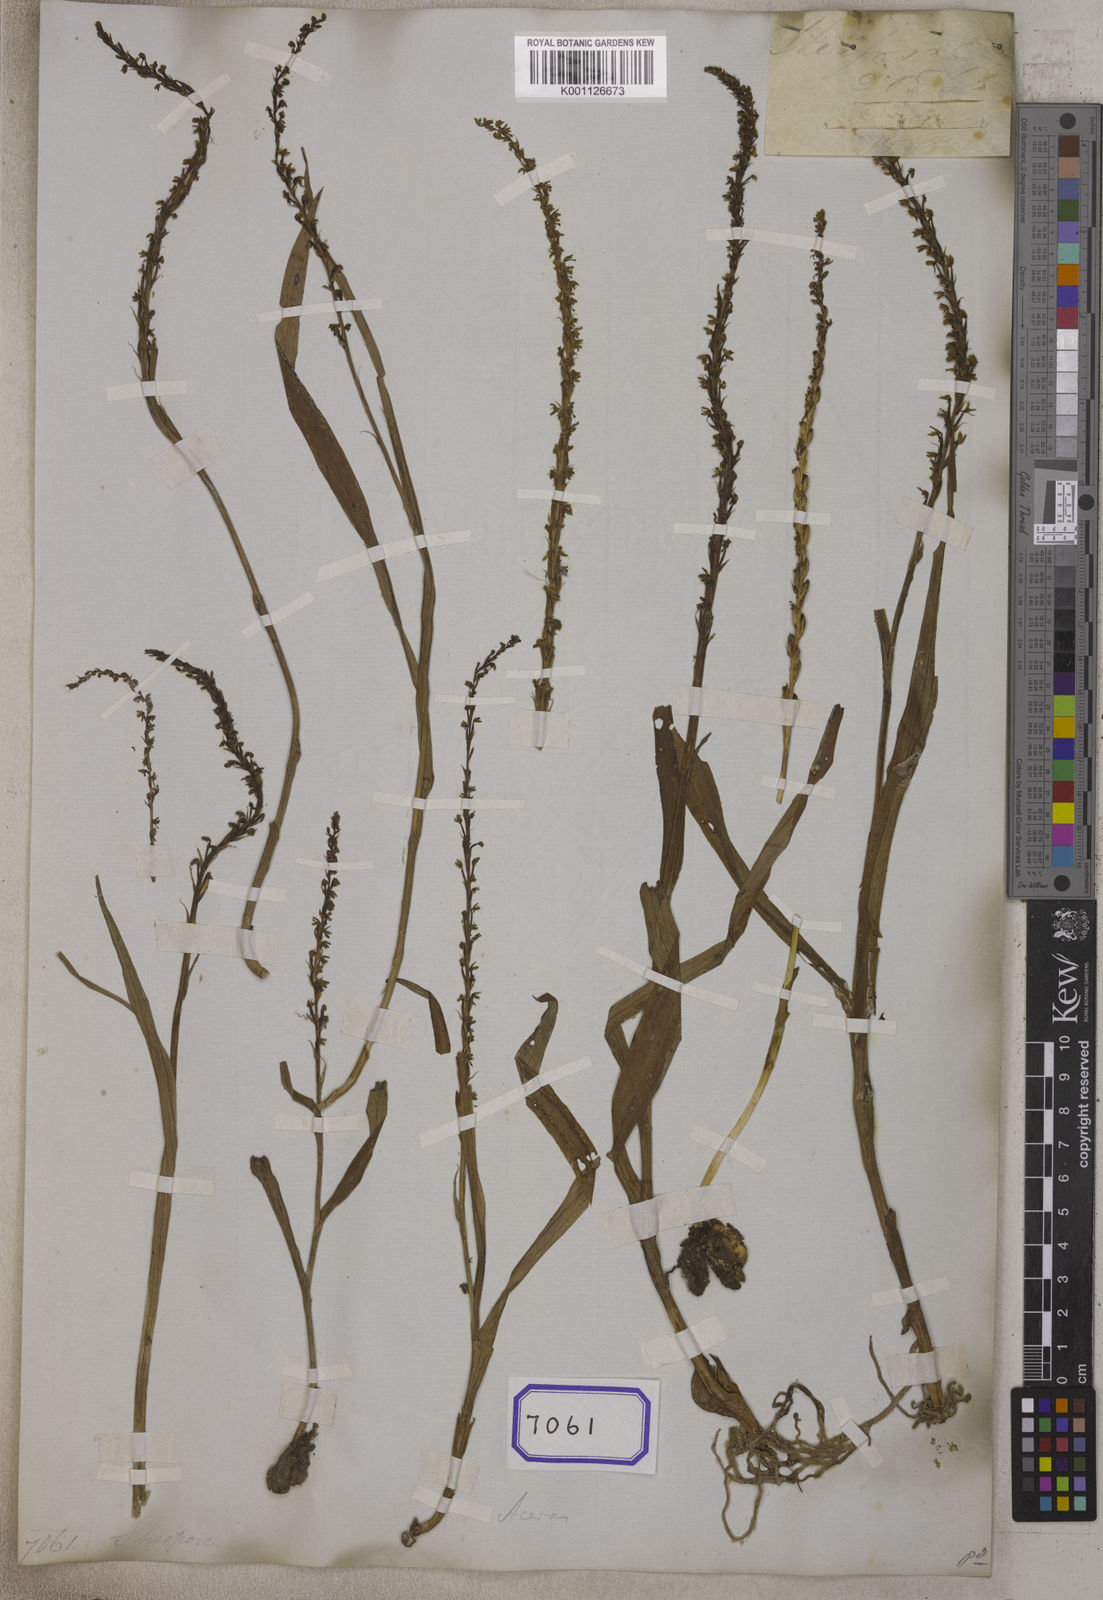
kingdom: Plantae
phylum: Tracheophyta
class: Liliopsida
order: Asparagales
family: Orchidaceae
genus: Herminium
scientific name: Herminium lanceum
